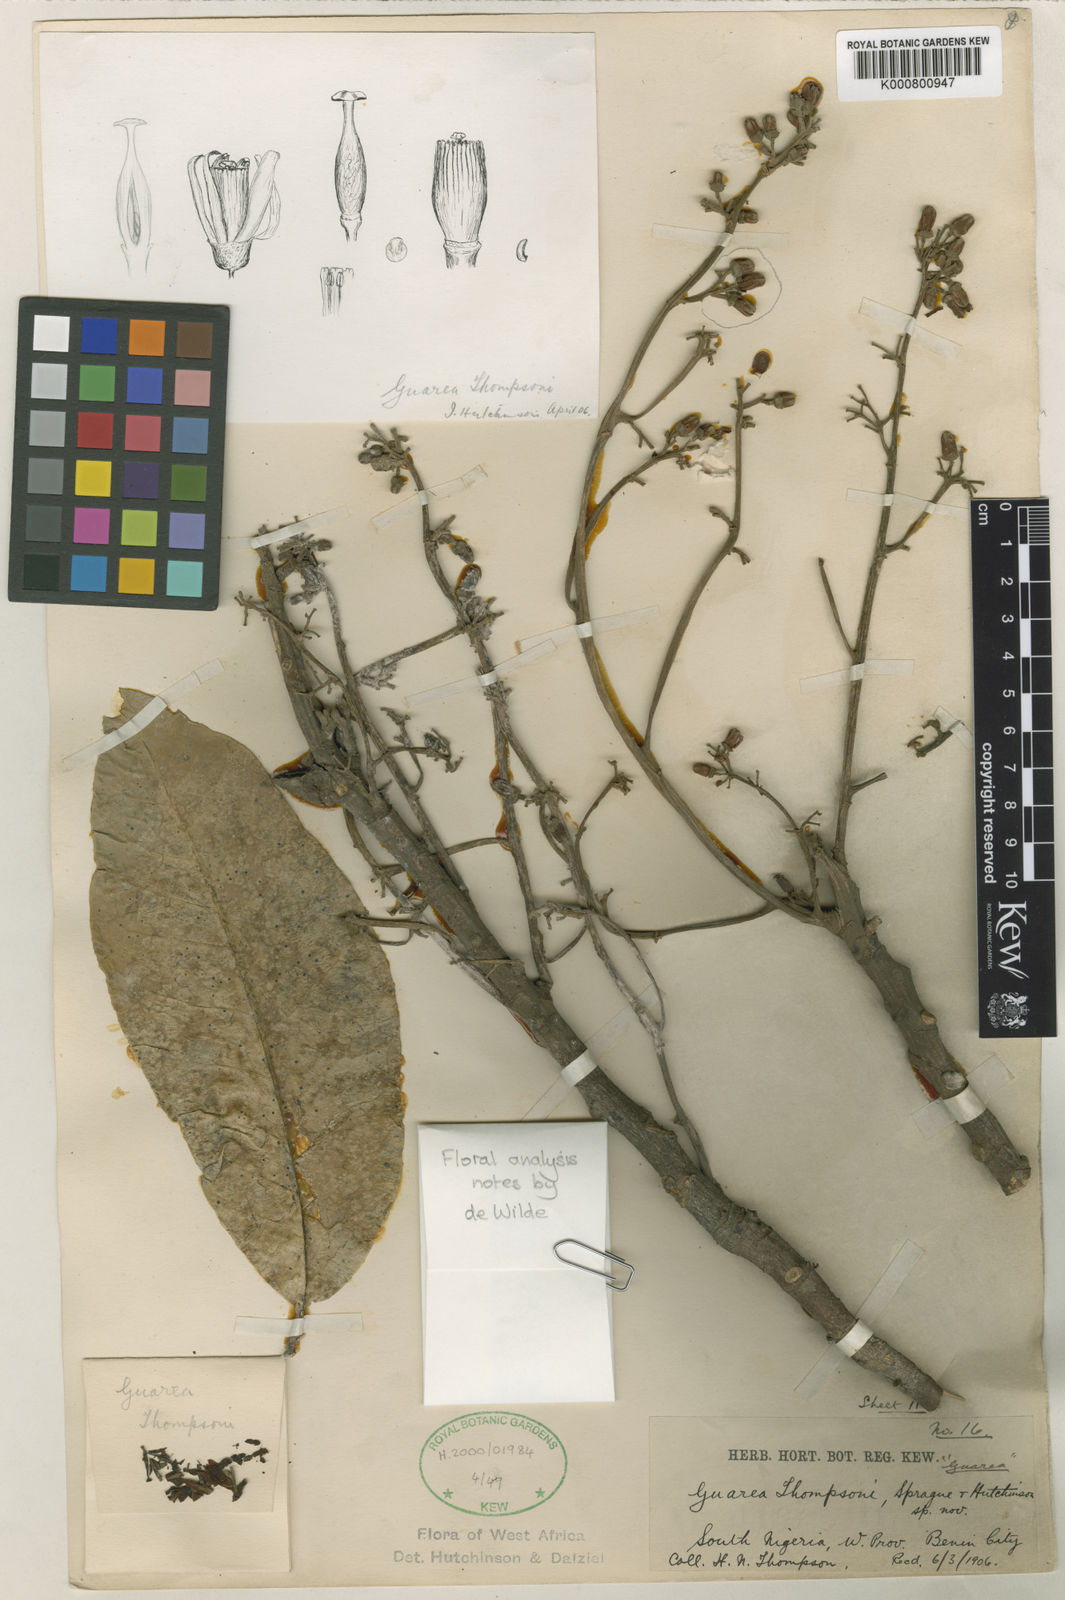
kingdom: Plantae
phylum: Tracheophyta
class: Magnoliopsida
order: Sapindales
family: Meliaceae
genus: Leplaea
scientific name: Leplaea thompsonii
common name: Black guarea
